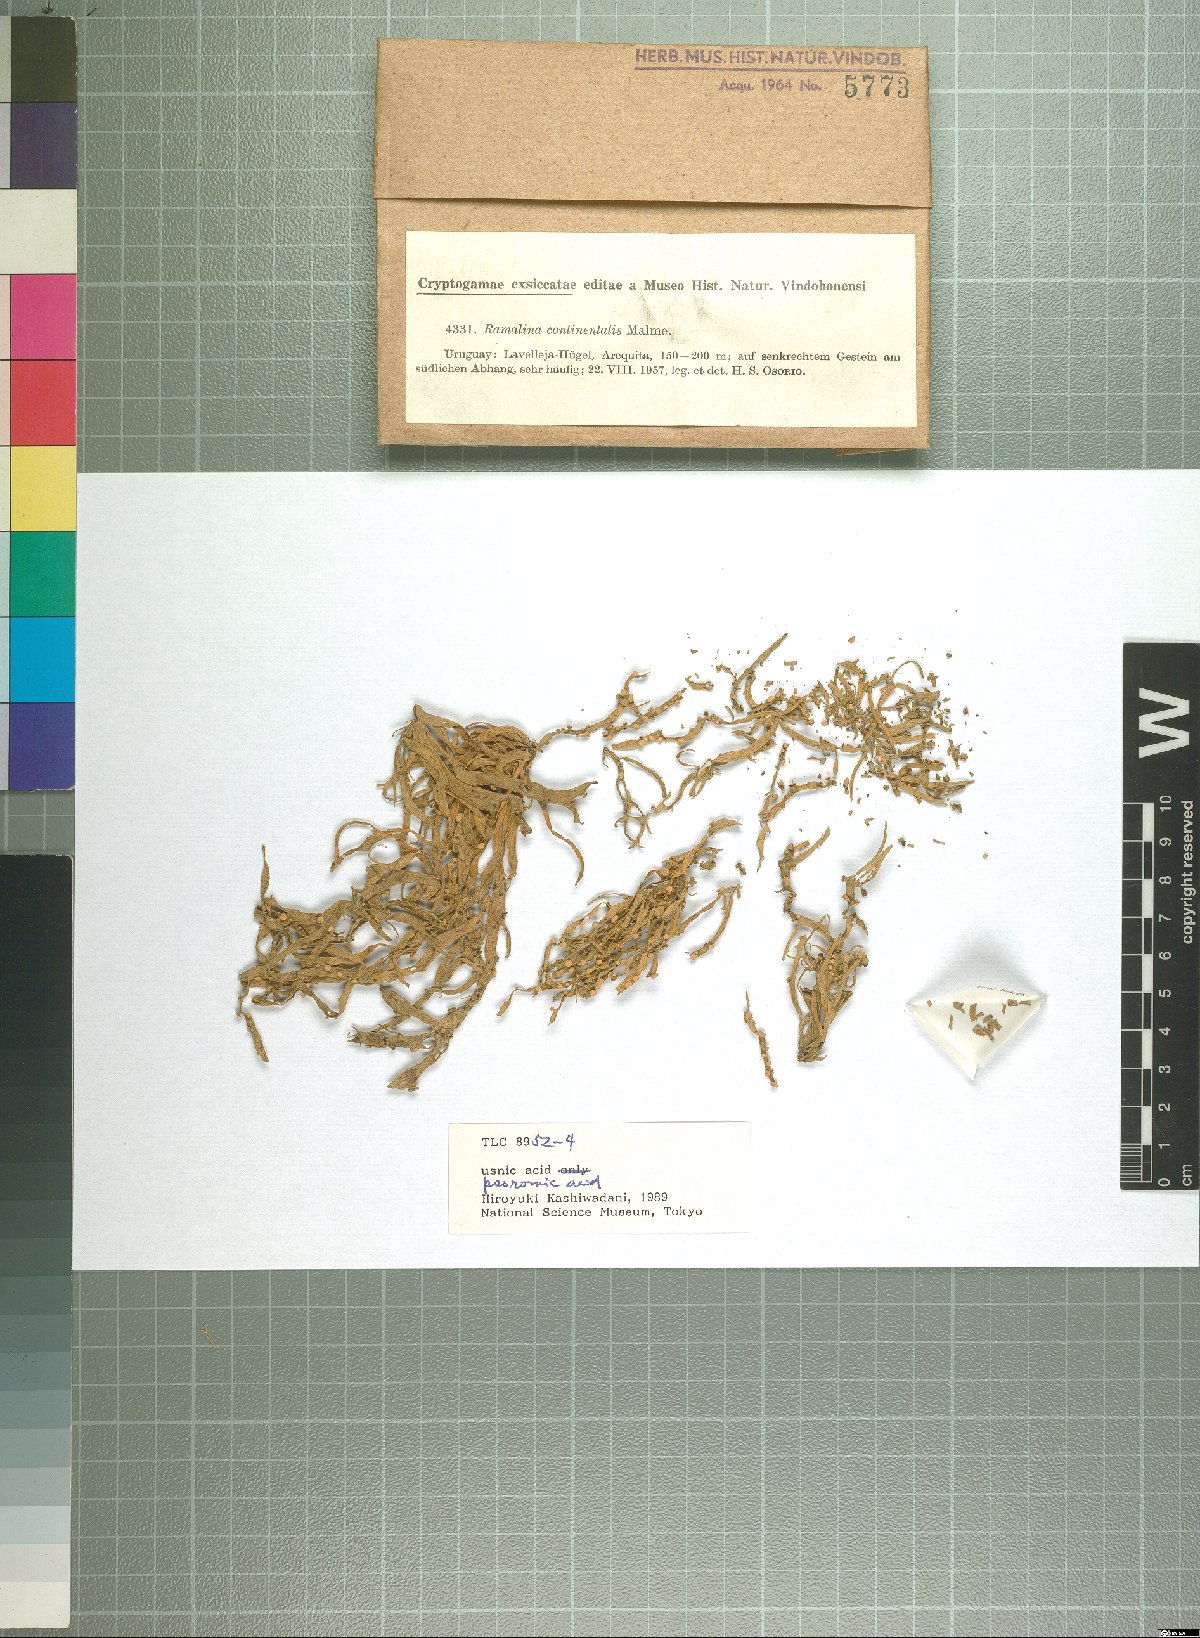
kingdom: Fungi
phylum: Ascomycota
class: Lecanoromycetes
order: Lecanorales
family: Ramalinaceae
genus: Ramalina
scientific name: Ramalina
